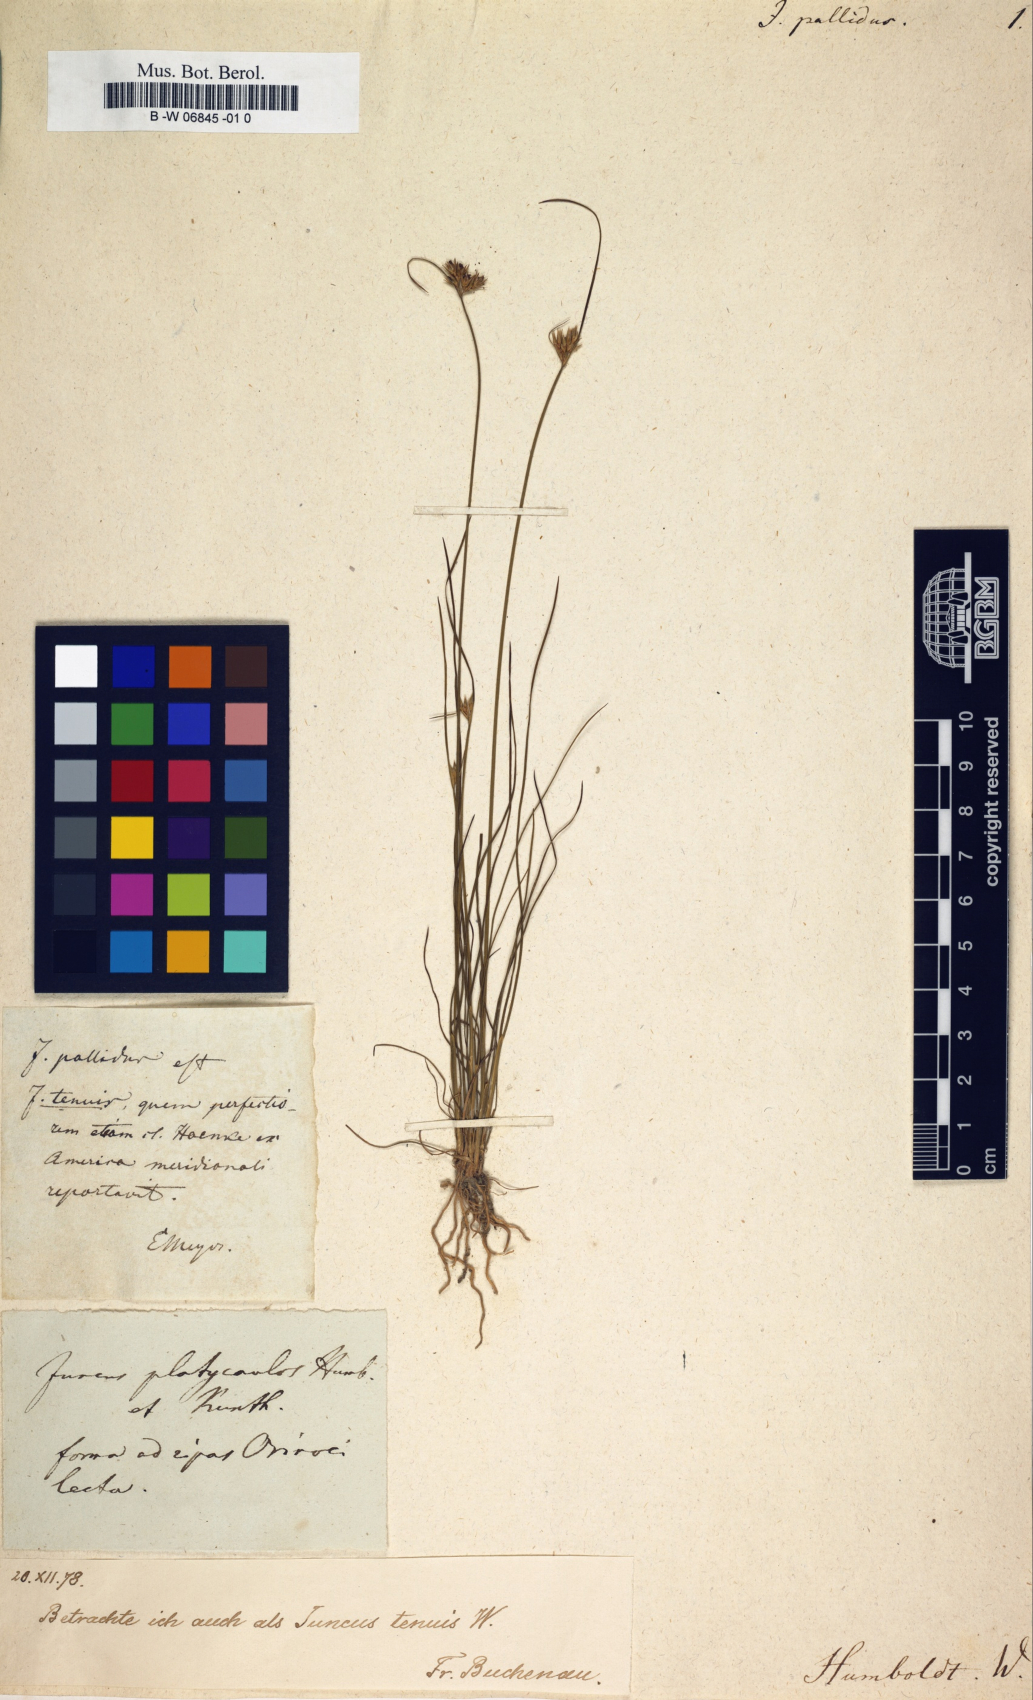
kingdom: Plantae
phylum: Tracheophyta
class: Liliopsida
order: Poales
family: Juncaceae
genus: Juncus
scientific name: Juncus pallidus
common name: Great soft-rush
